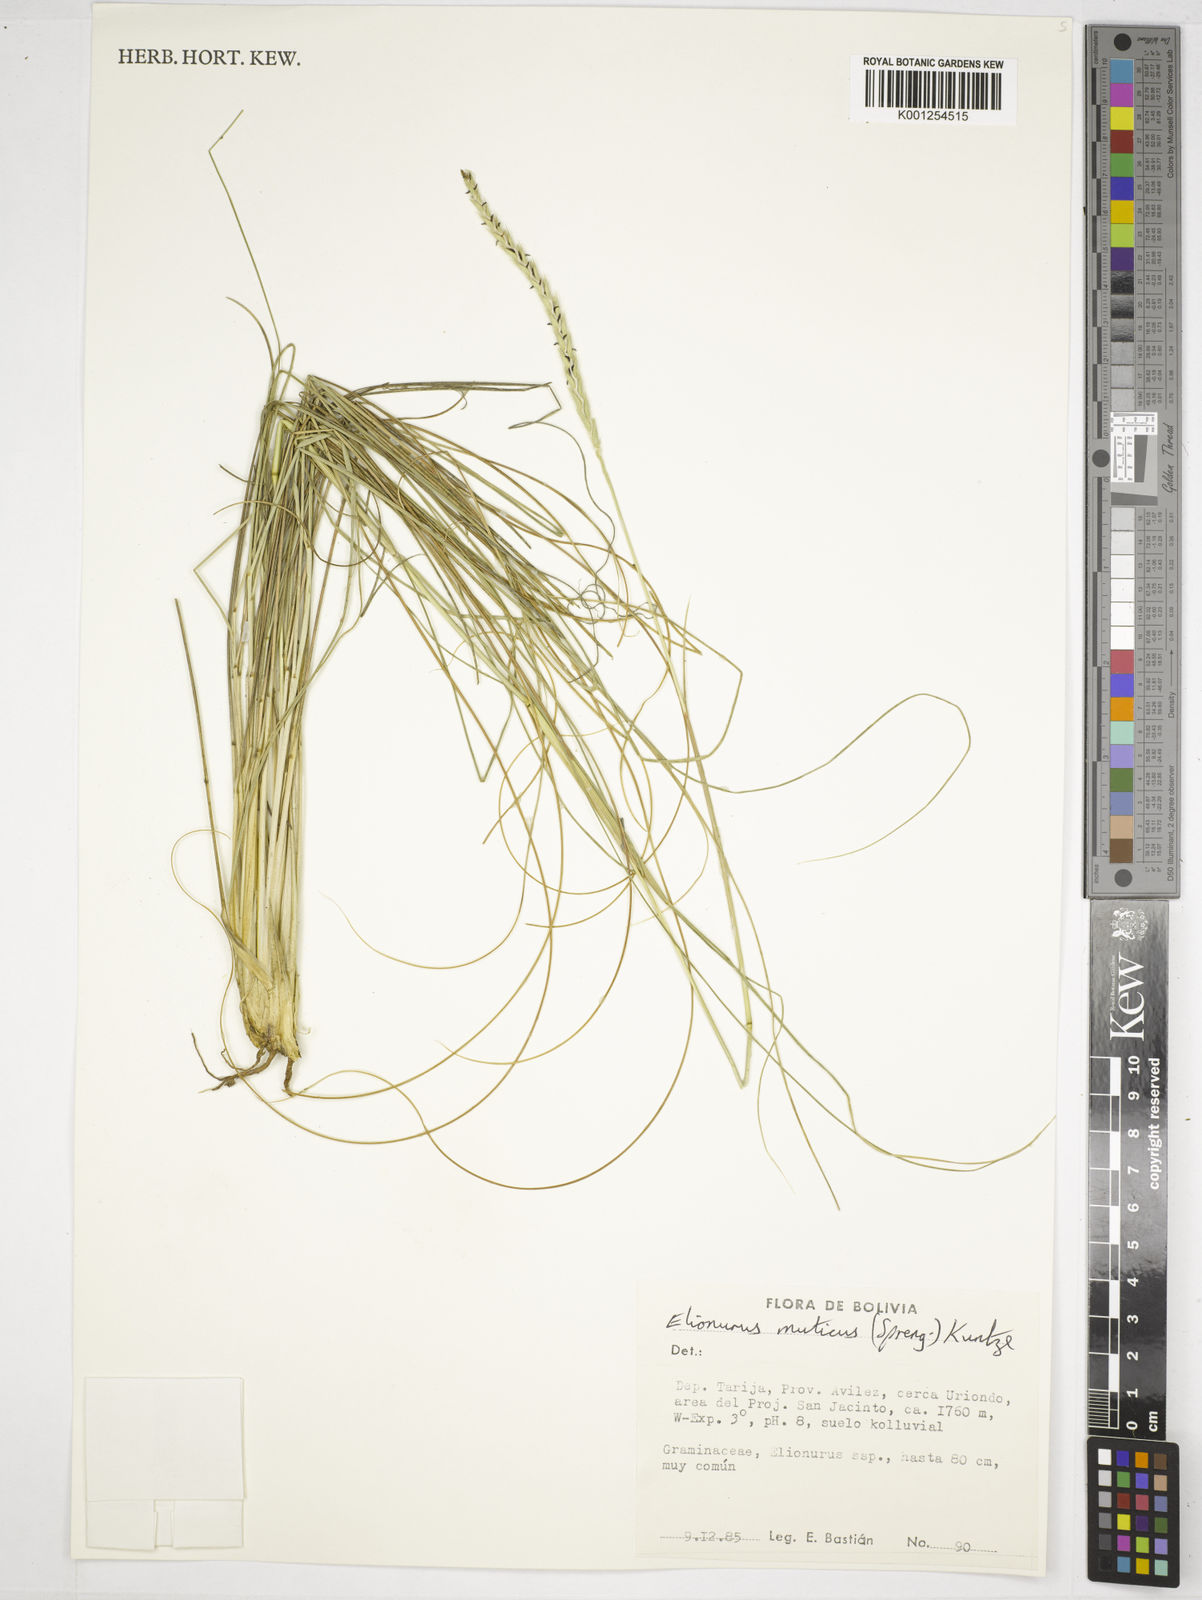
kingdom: Plantae
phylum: Tracheophyta
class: Liliopsida
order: Poales
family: Poaceae
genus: Elionurus
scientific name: Elionurus muticus
